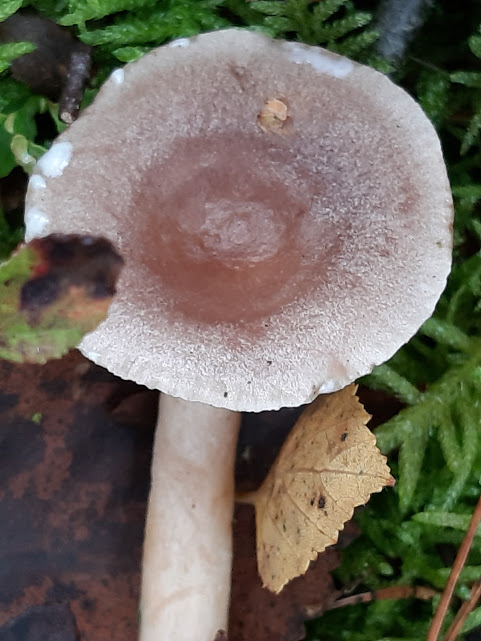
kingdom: Fungi
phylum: Basidiomycota
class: Agaricomycetes
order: Russulales
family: Russulaceae
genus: Lactarius
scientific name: Lactarius vietus
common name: violetgrå mælkehat
